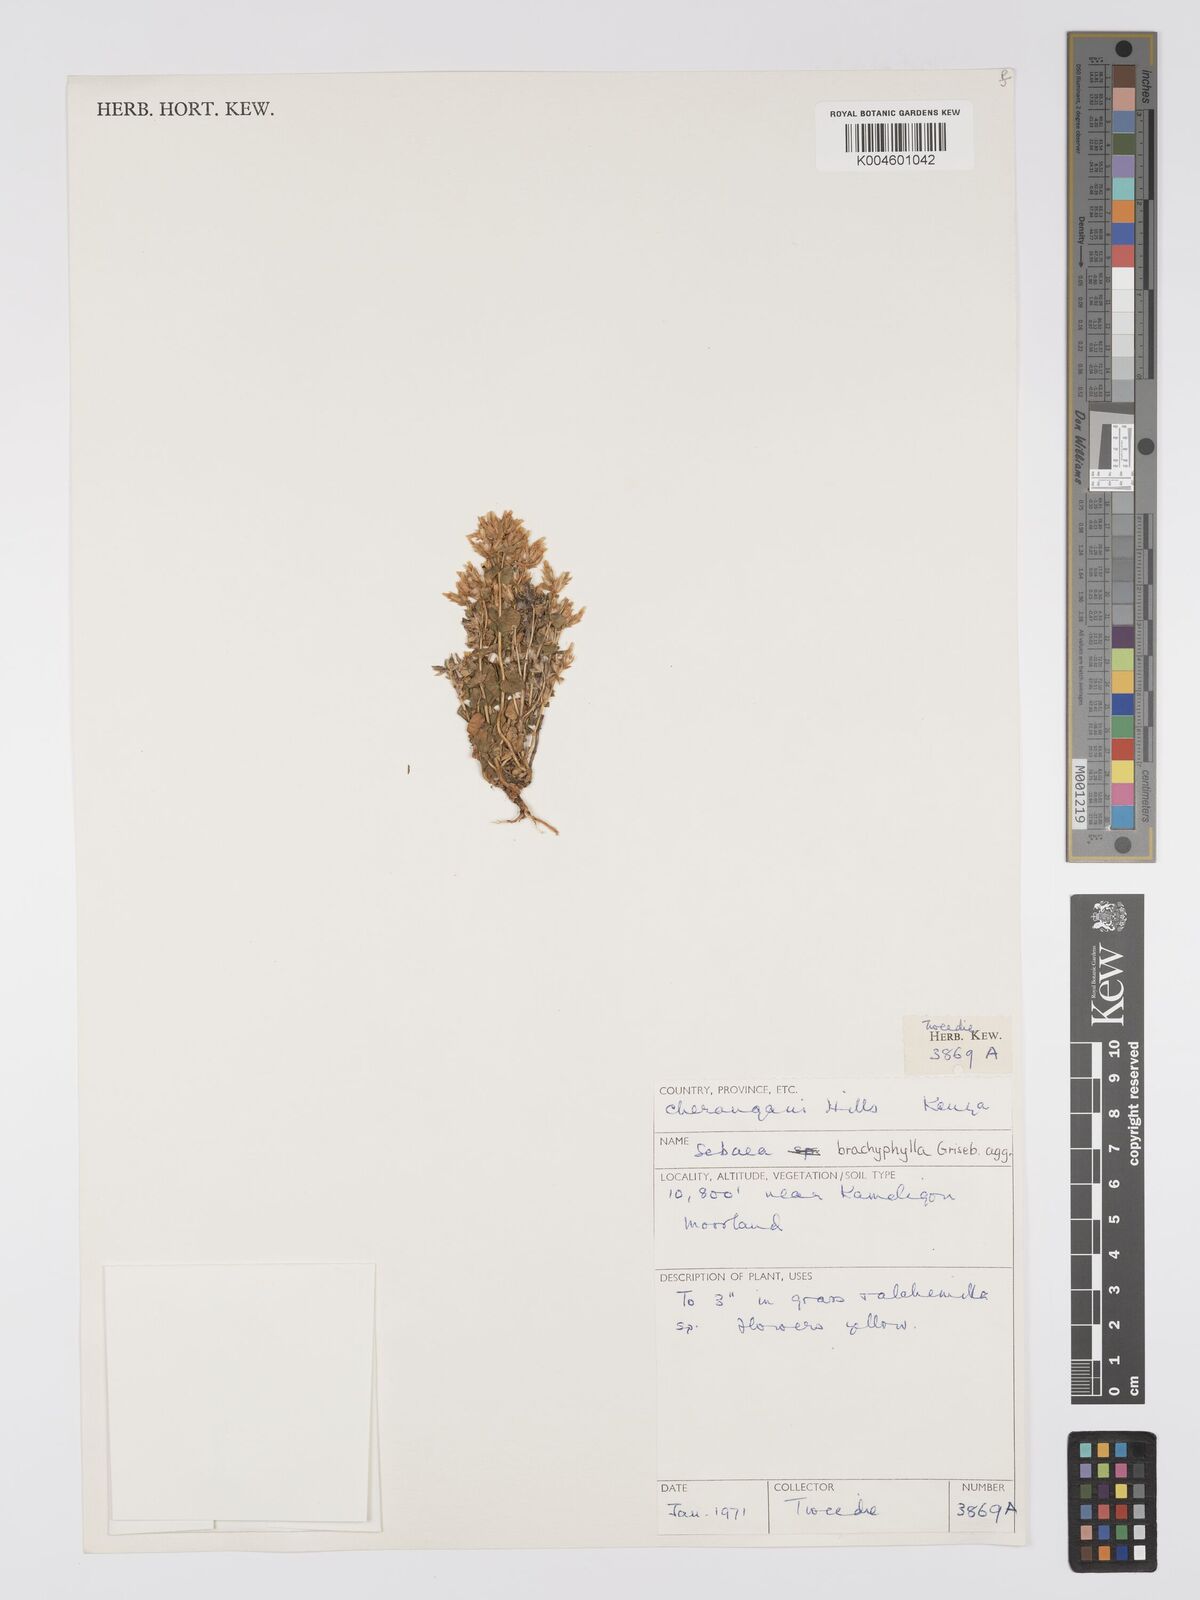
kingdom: Plantae
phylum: Tracheophyta
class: Magnoliopsida
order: Gentianales
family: Gentianaceae
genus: Sebaea
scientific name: Sebaea brachyphylla
